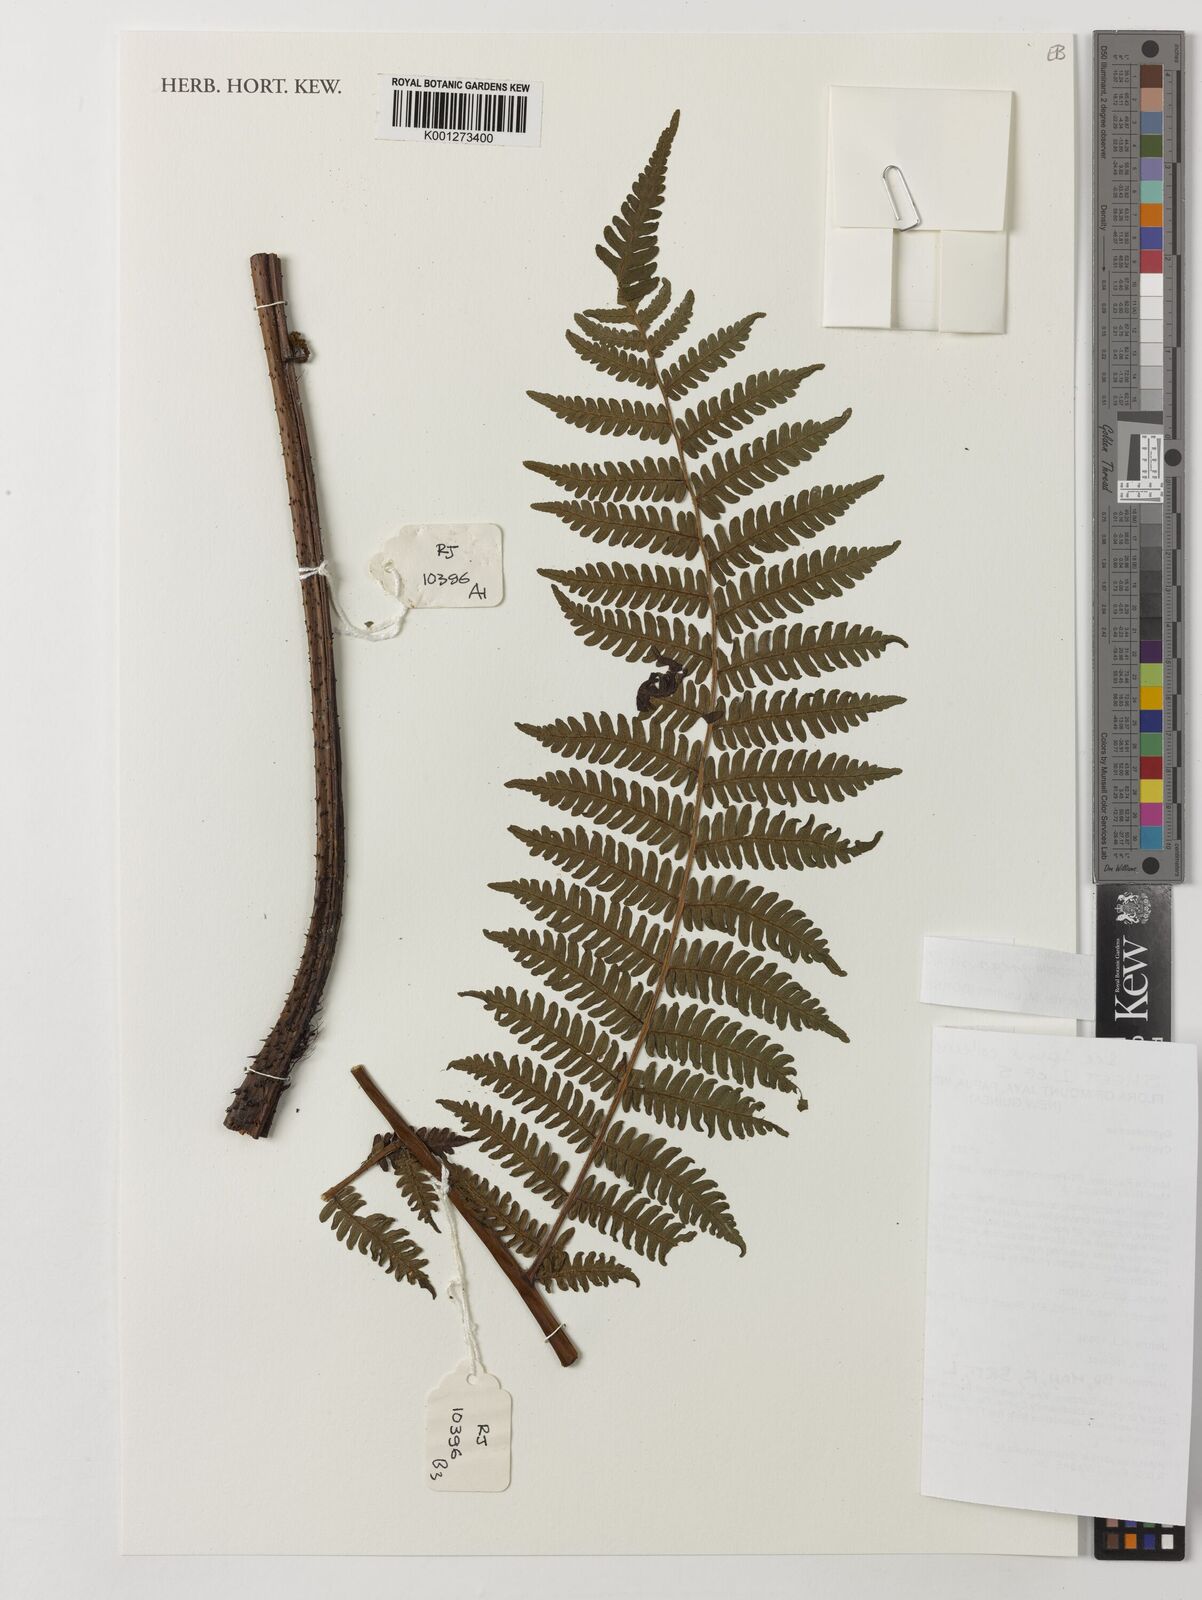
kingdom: Plantae
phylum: Tracheophyta
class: Polypodiopsida
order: Cyatheales
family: Cyatheaceae
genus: Alsophila
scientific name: Alsophila gregaria
